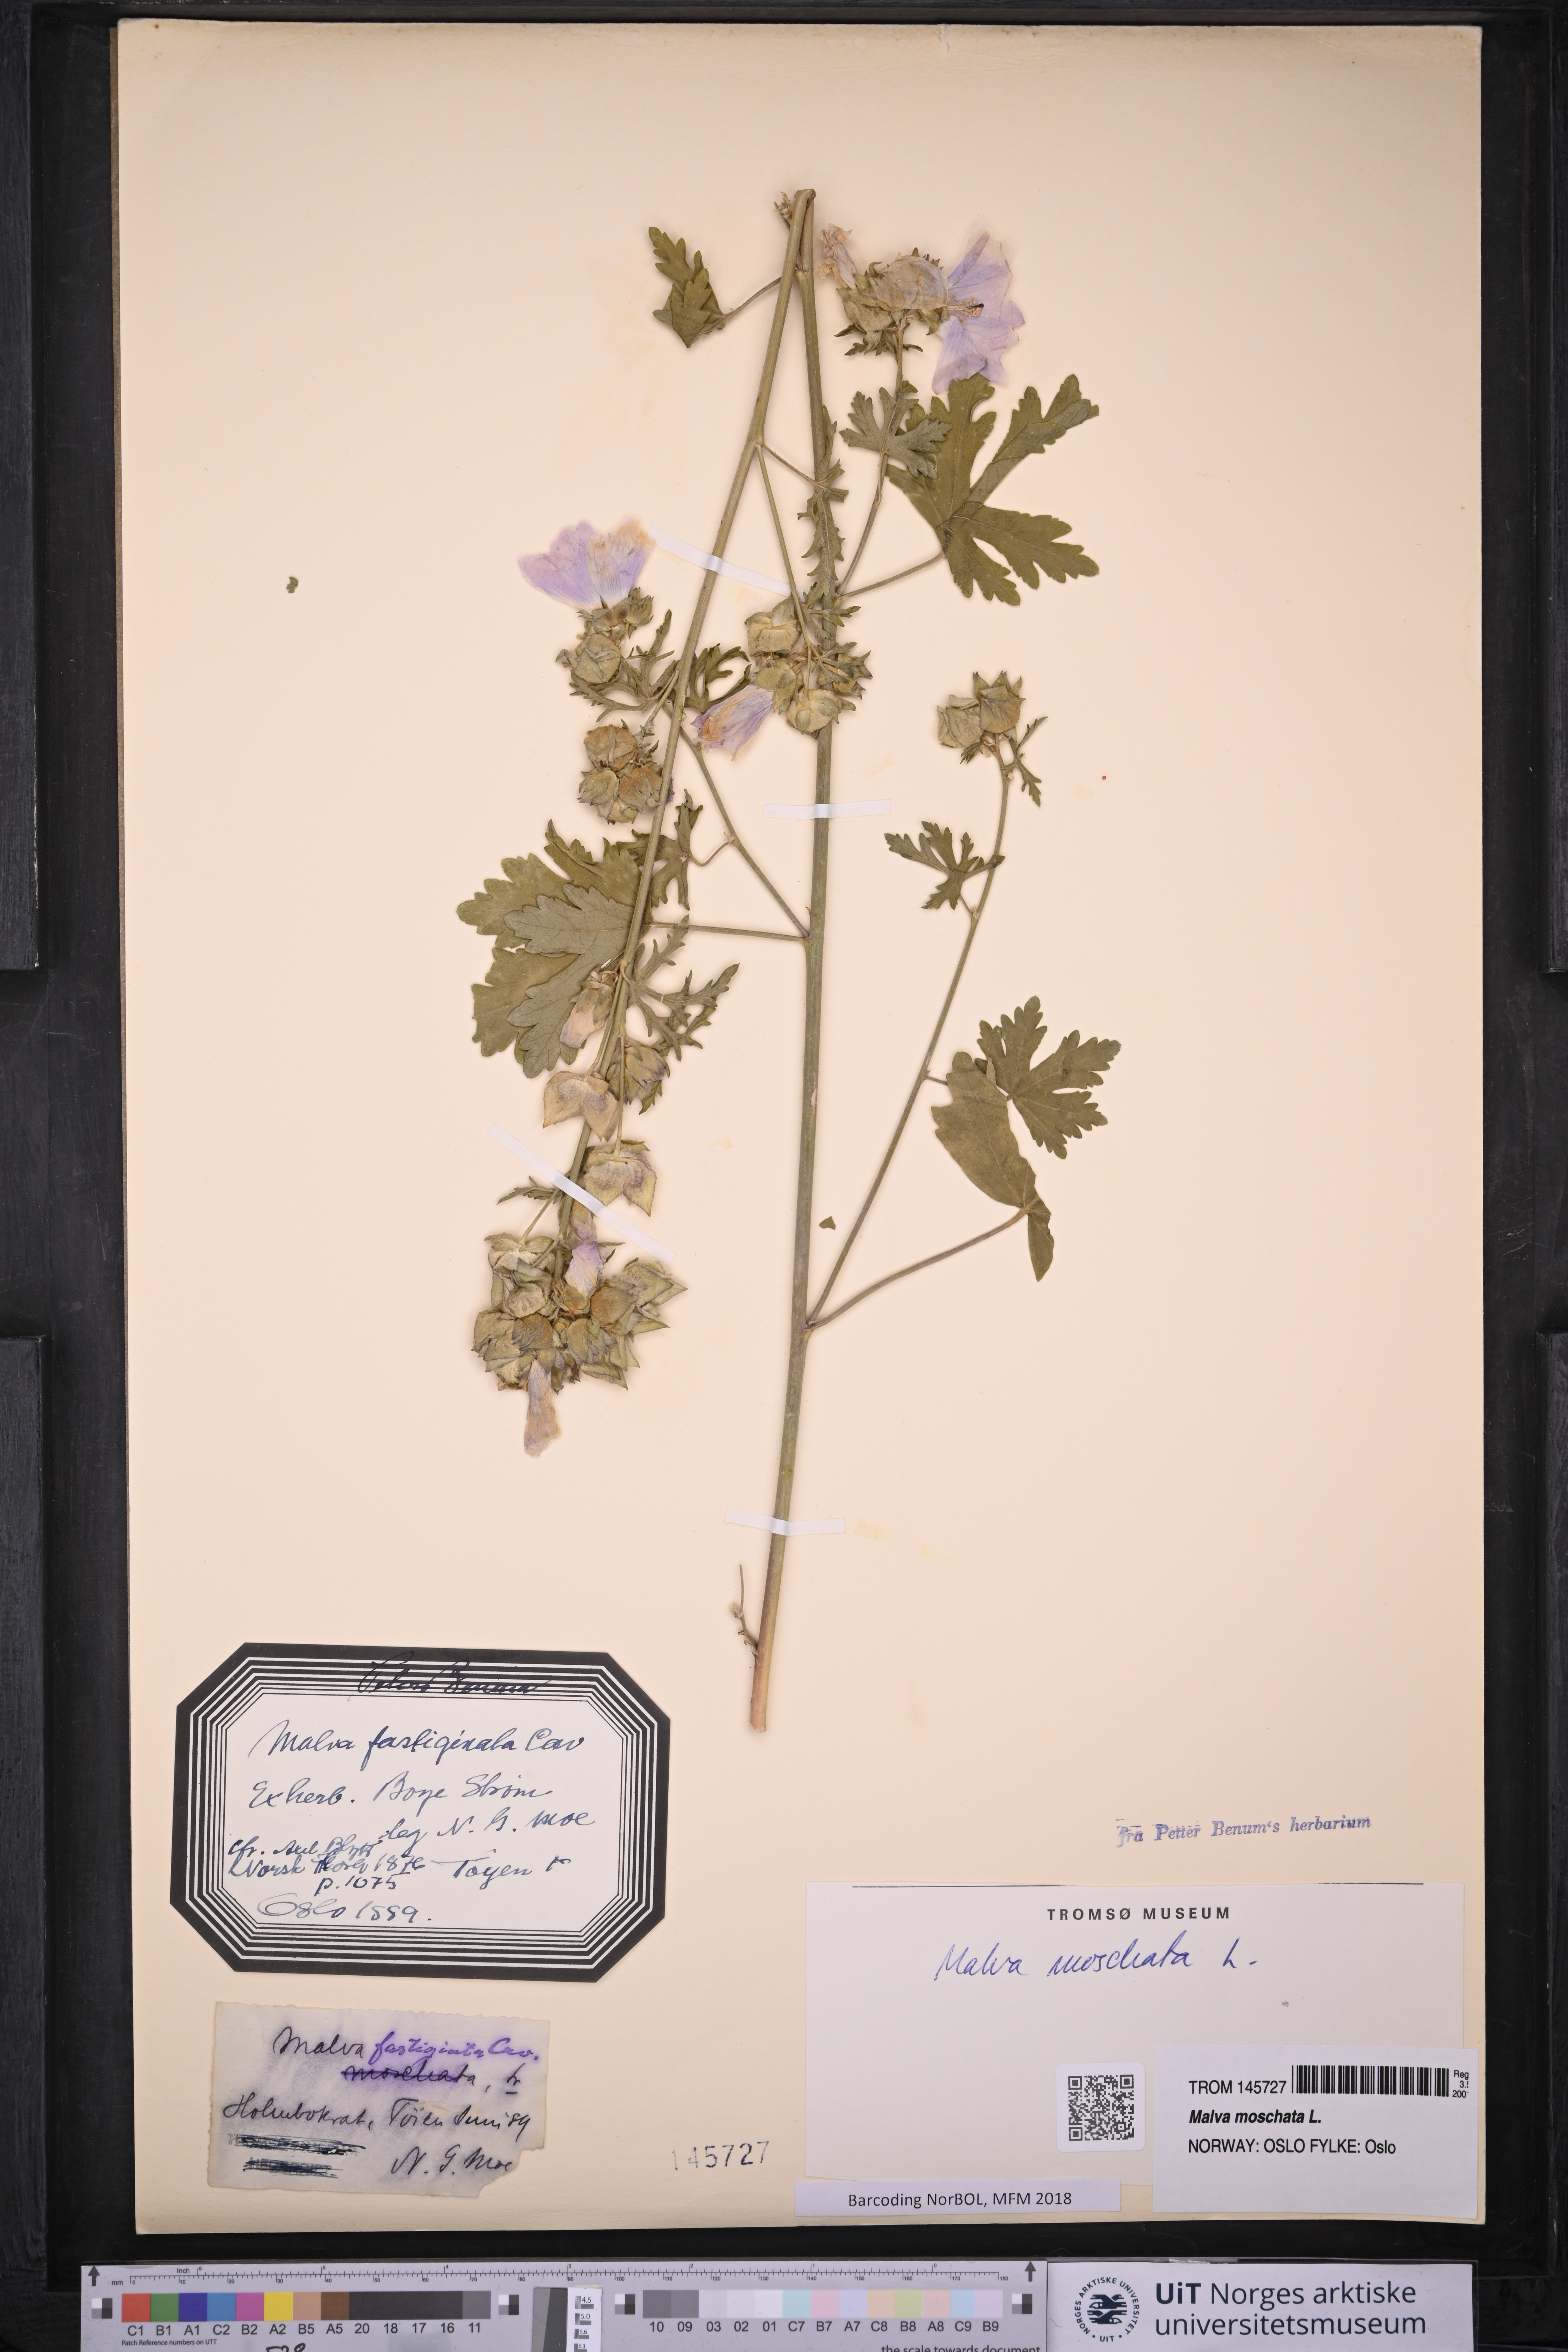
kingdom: Plantae
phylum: Tracheophyta
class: Magnoliopsida
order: Malvales
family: Malvaceae
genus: Malva
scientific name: Malva moschata
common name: Musk mallow
